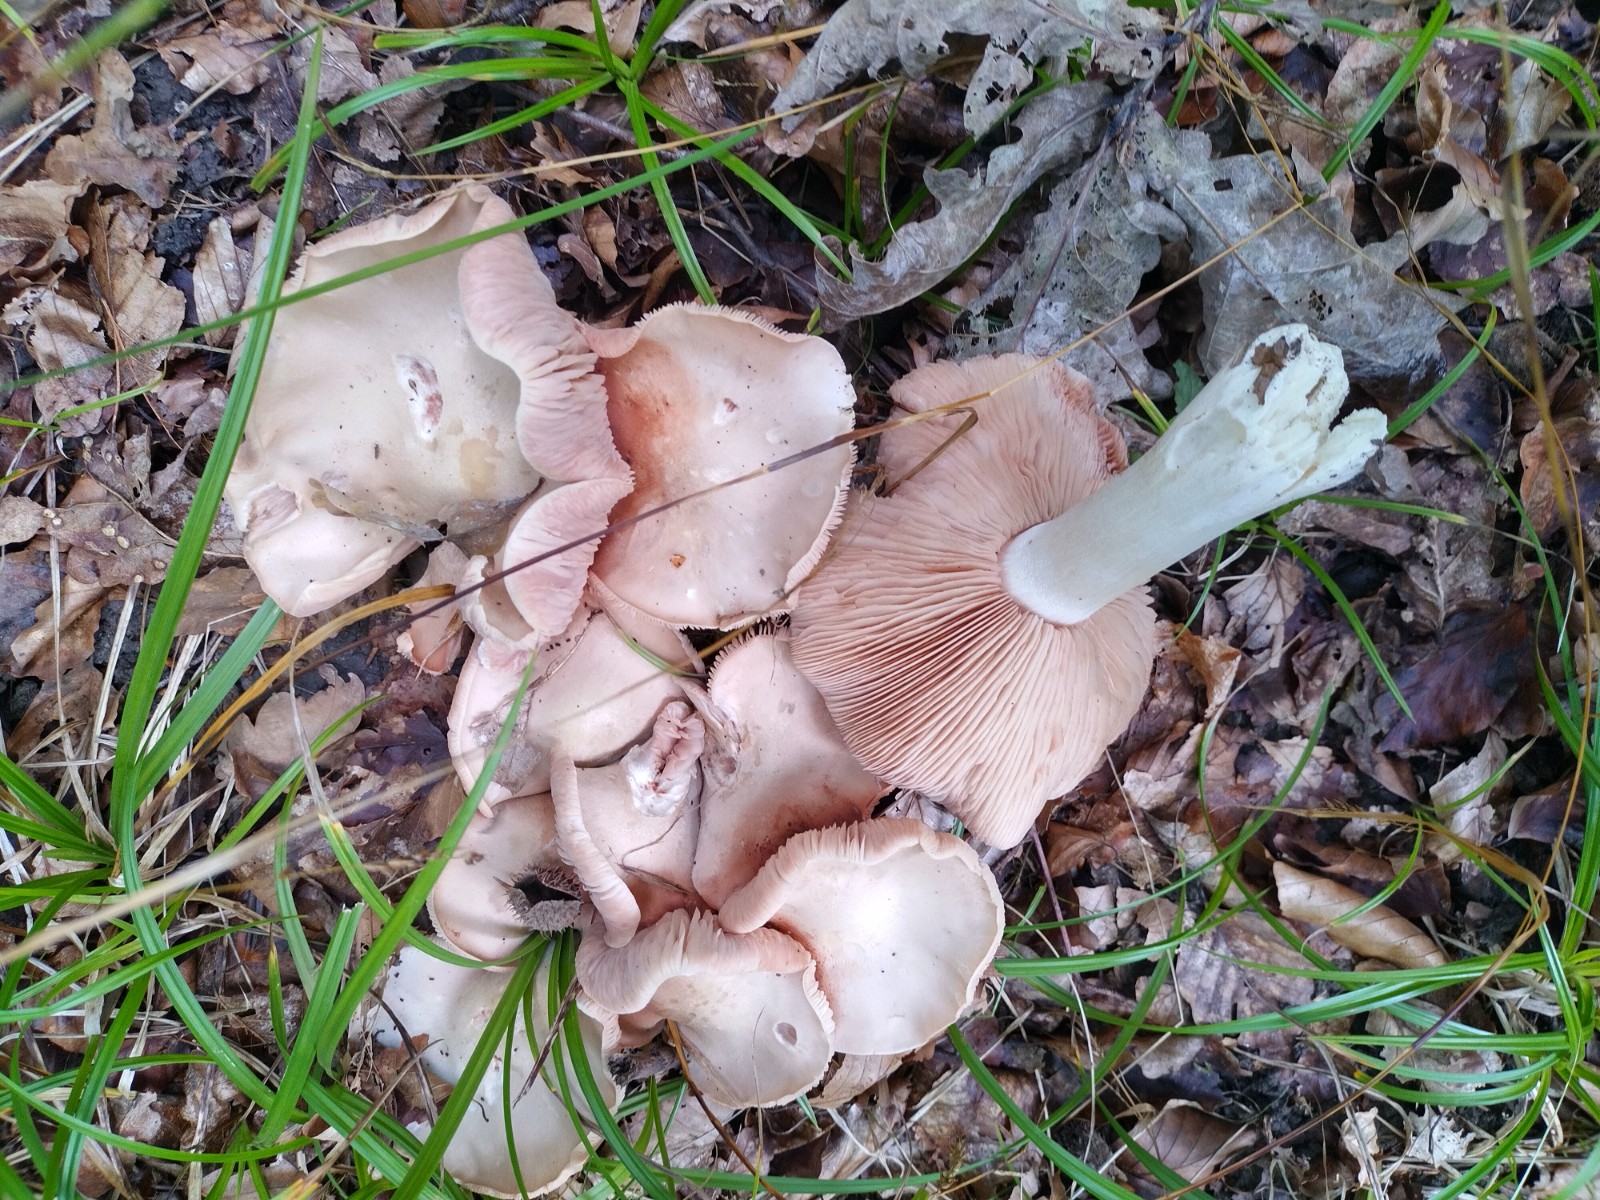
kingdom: Fungi
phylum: Basidiomycota
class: Agaricomycetes
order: Agaricales
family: Entolomataceae
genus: Entoloma
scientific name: Entoloma sinuatum
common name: giftig rødblad
